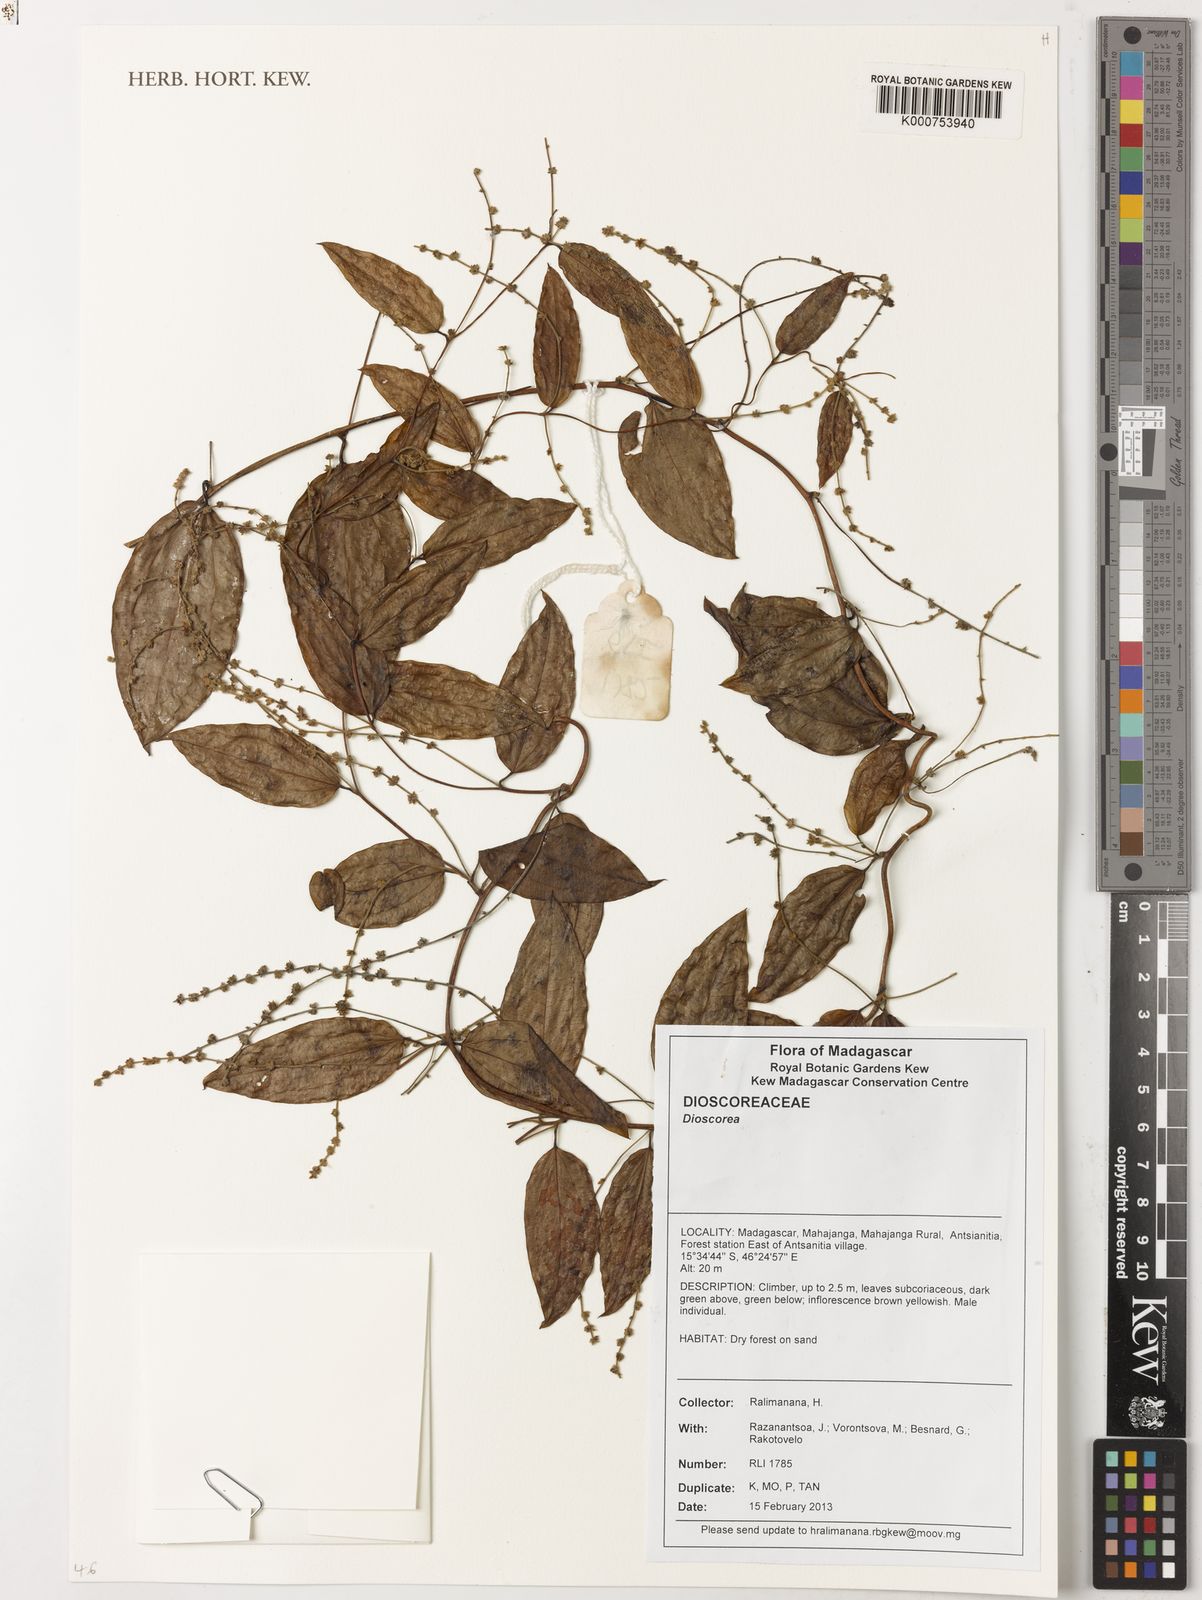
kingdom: Plantae
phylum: Tracheophyta
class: Liliopsida
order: Dioscoreales
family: Dioscoreaceae
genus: Dioscorea
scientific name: Dioscorea
